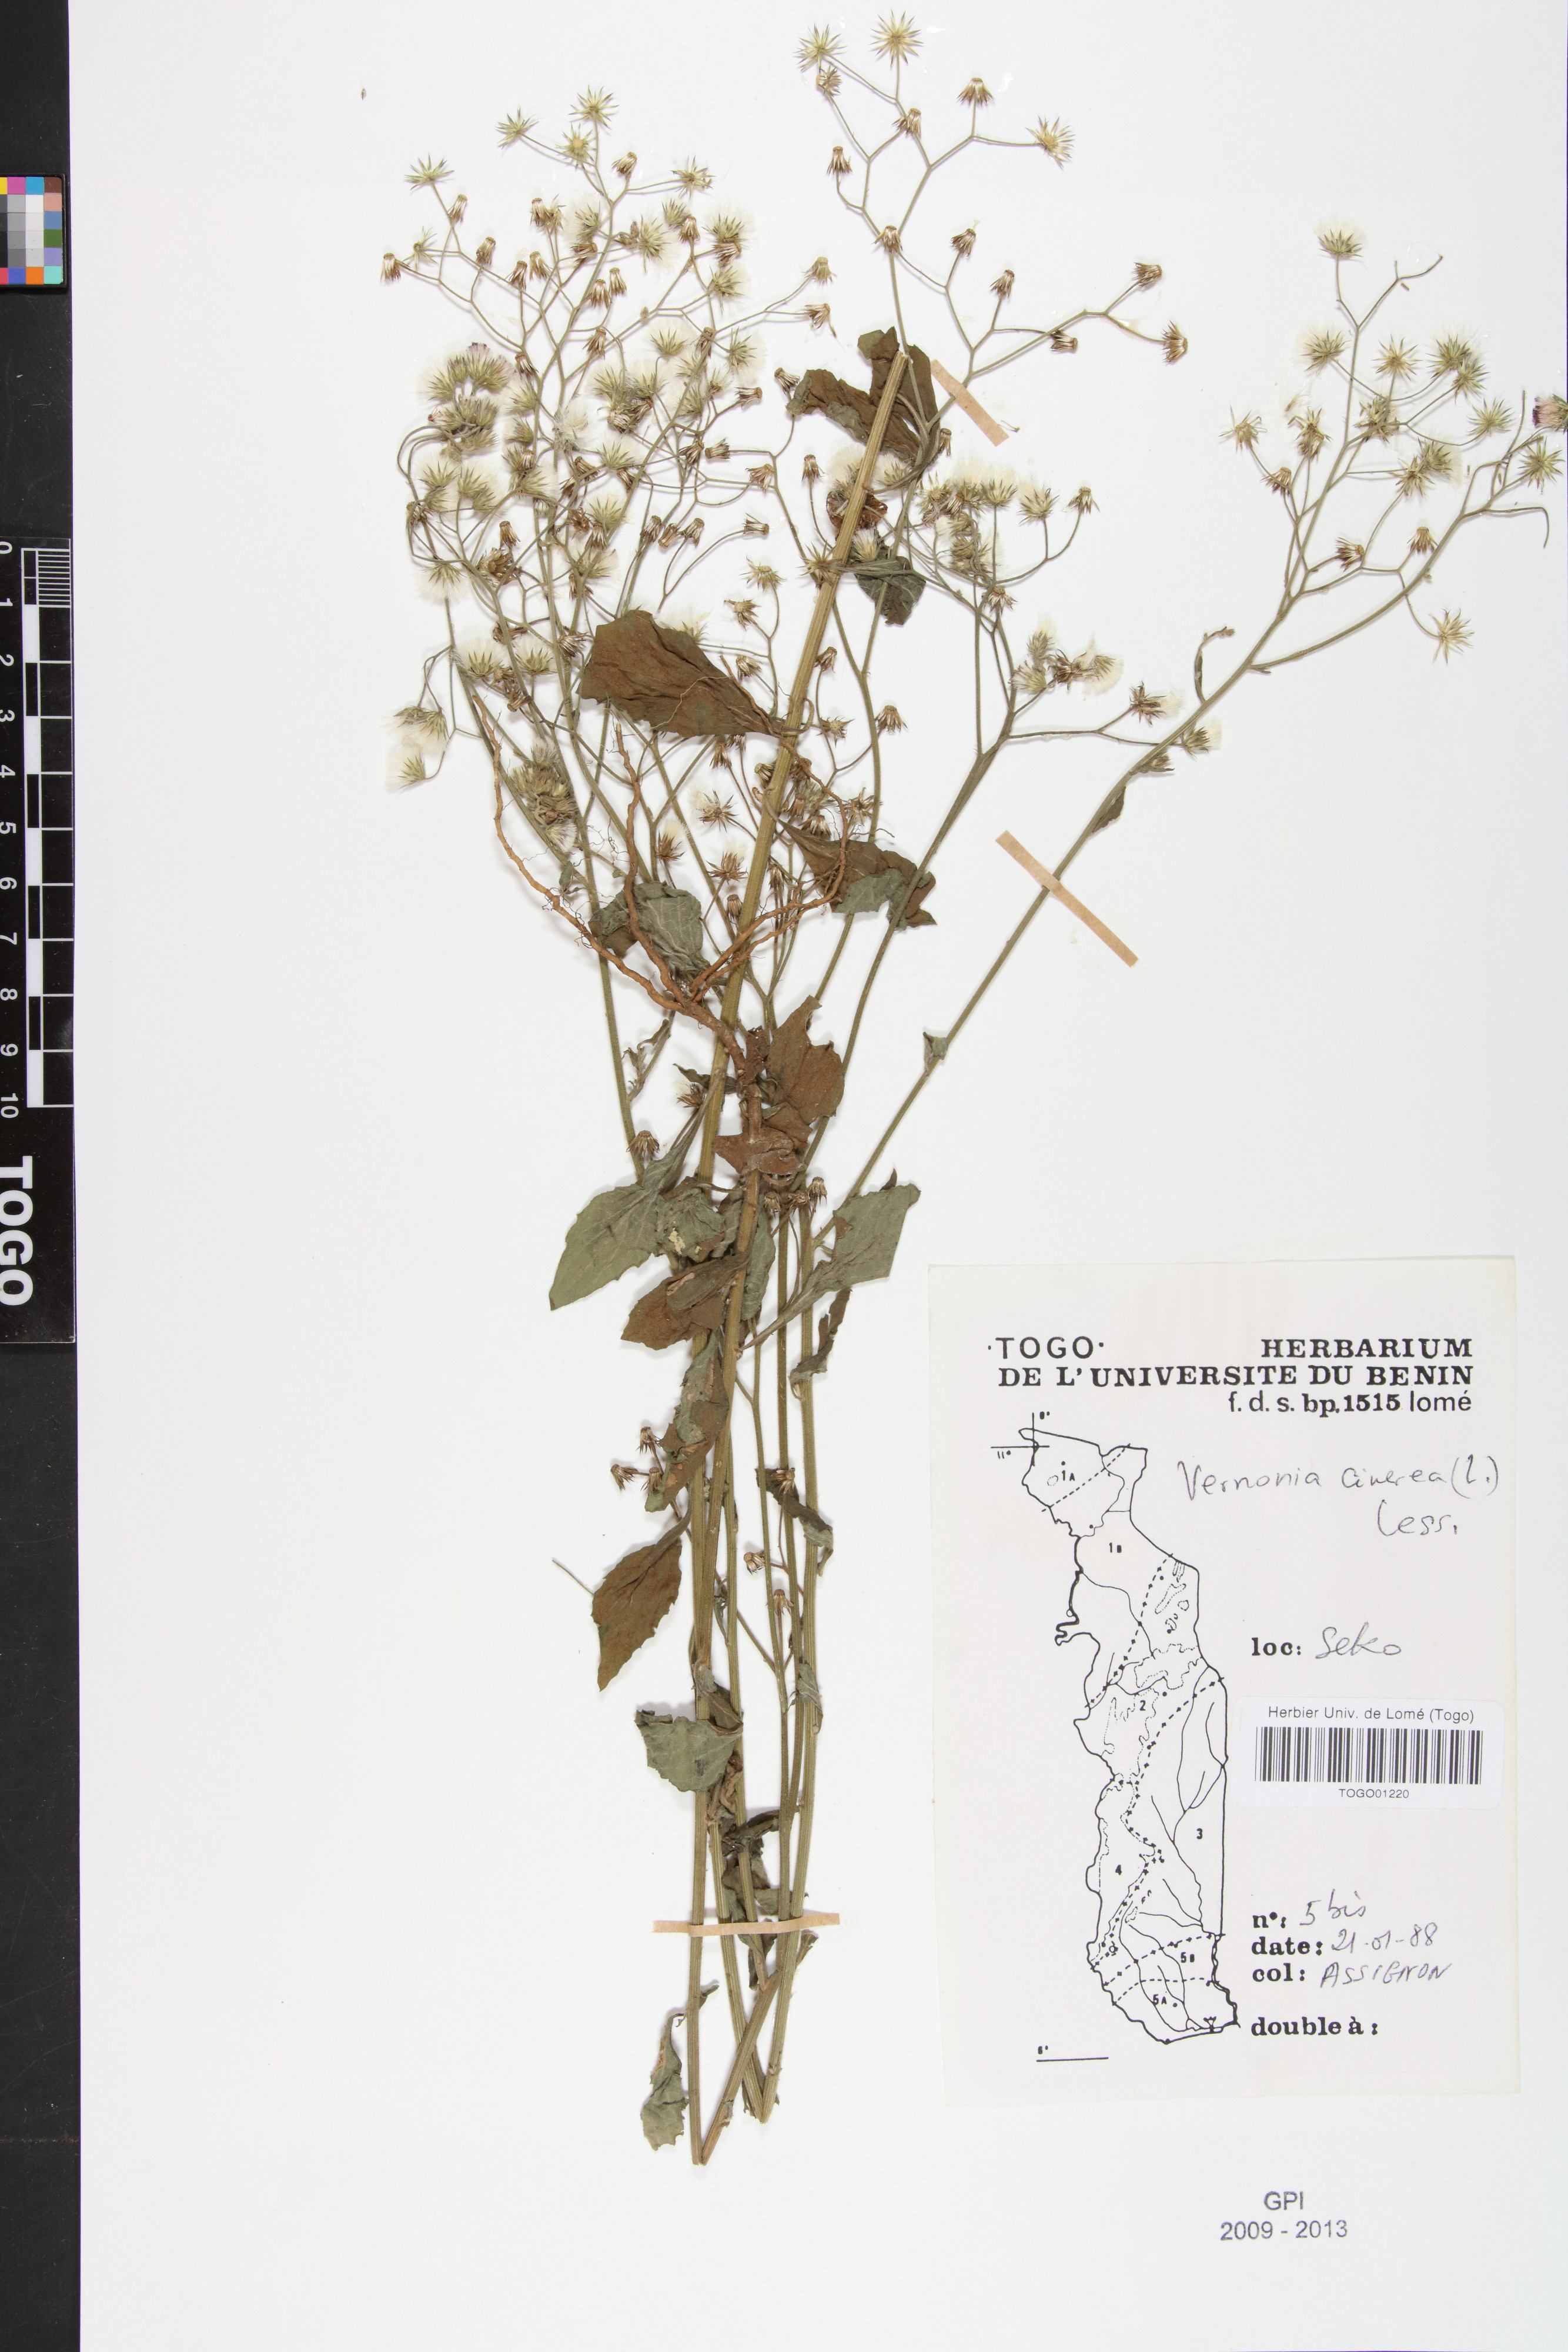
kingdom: Plantae
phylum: Tracheophyta
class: Magnoliopsida
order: Asterales
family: Asteraceae
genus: Cyanthillium
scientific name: Cyanthillium cinereum
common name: Little ironweed
